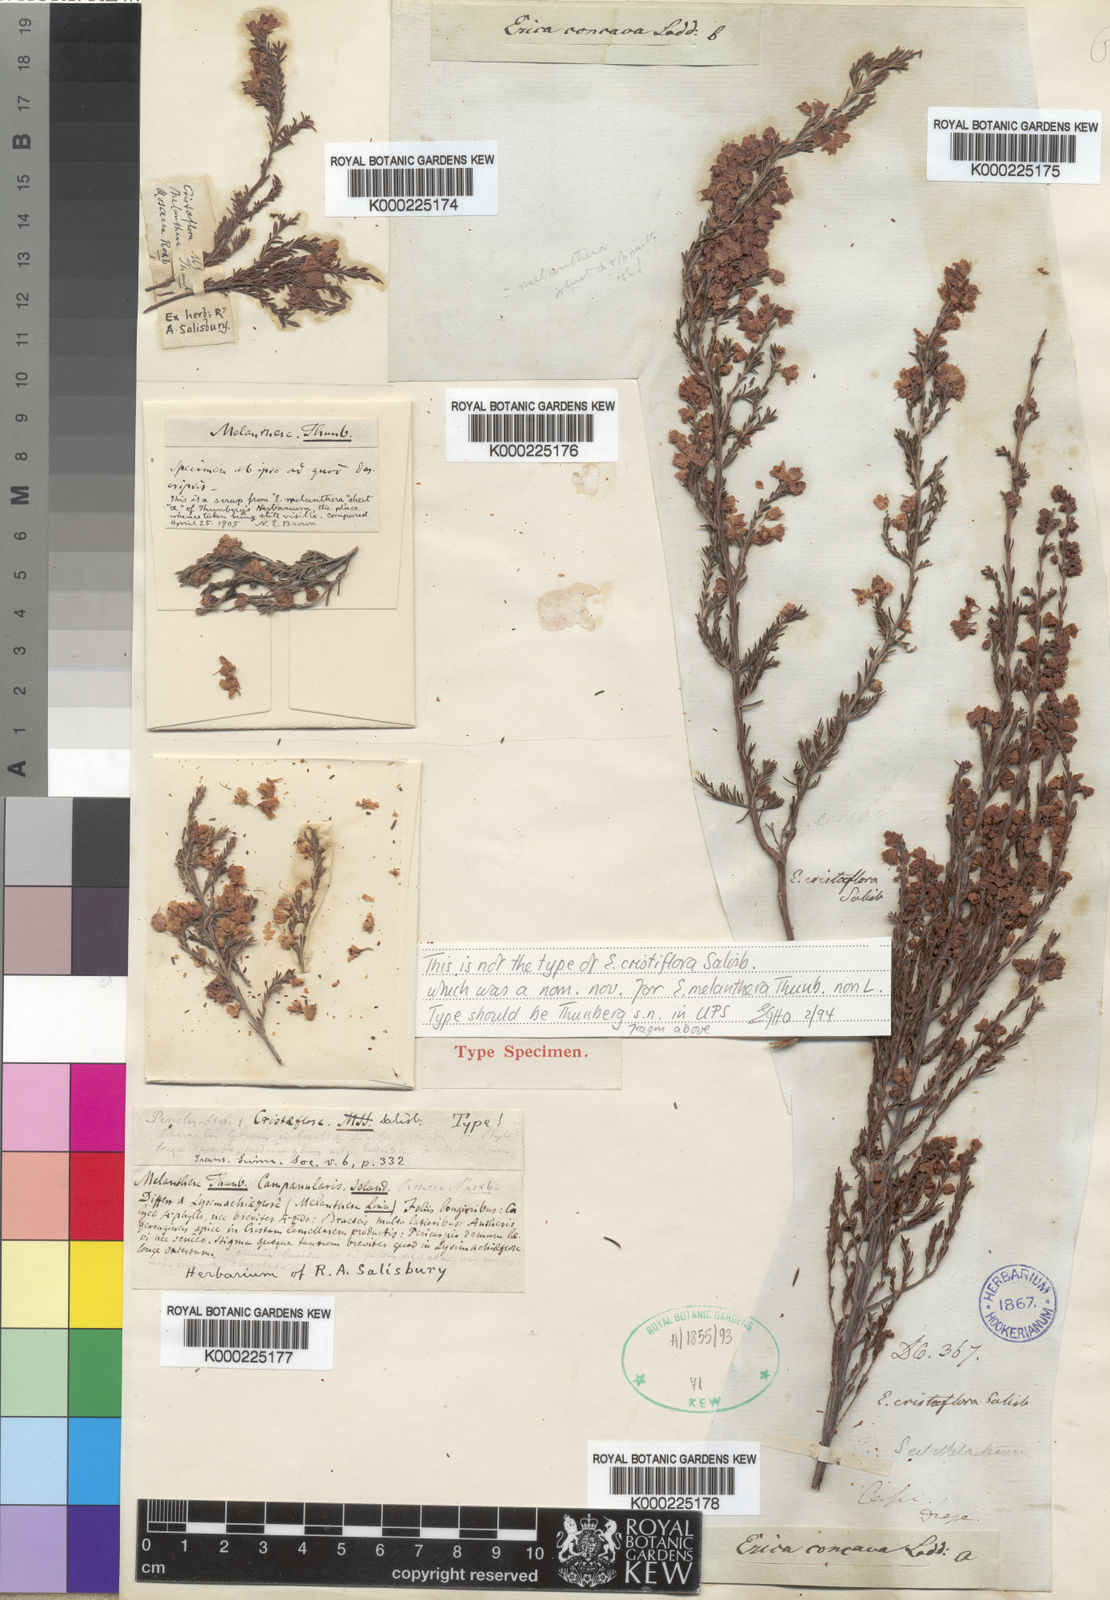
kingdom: Plantae
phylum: Tracheophyta
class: Magnoliopsida
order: Ericales
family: Ericaceae
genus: Erica
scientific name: Erica
